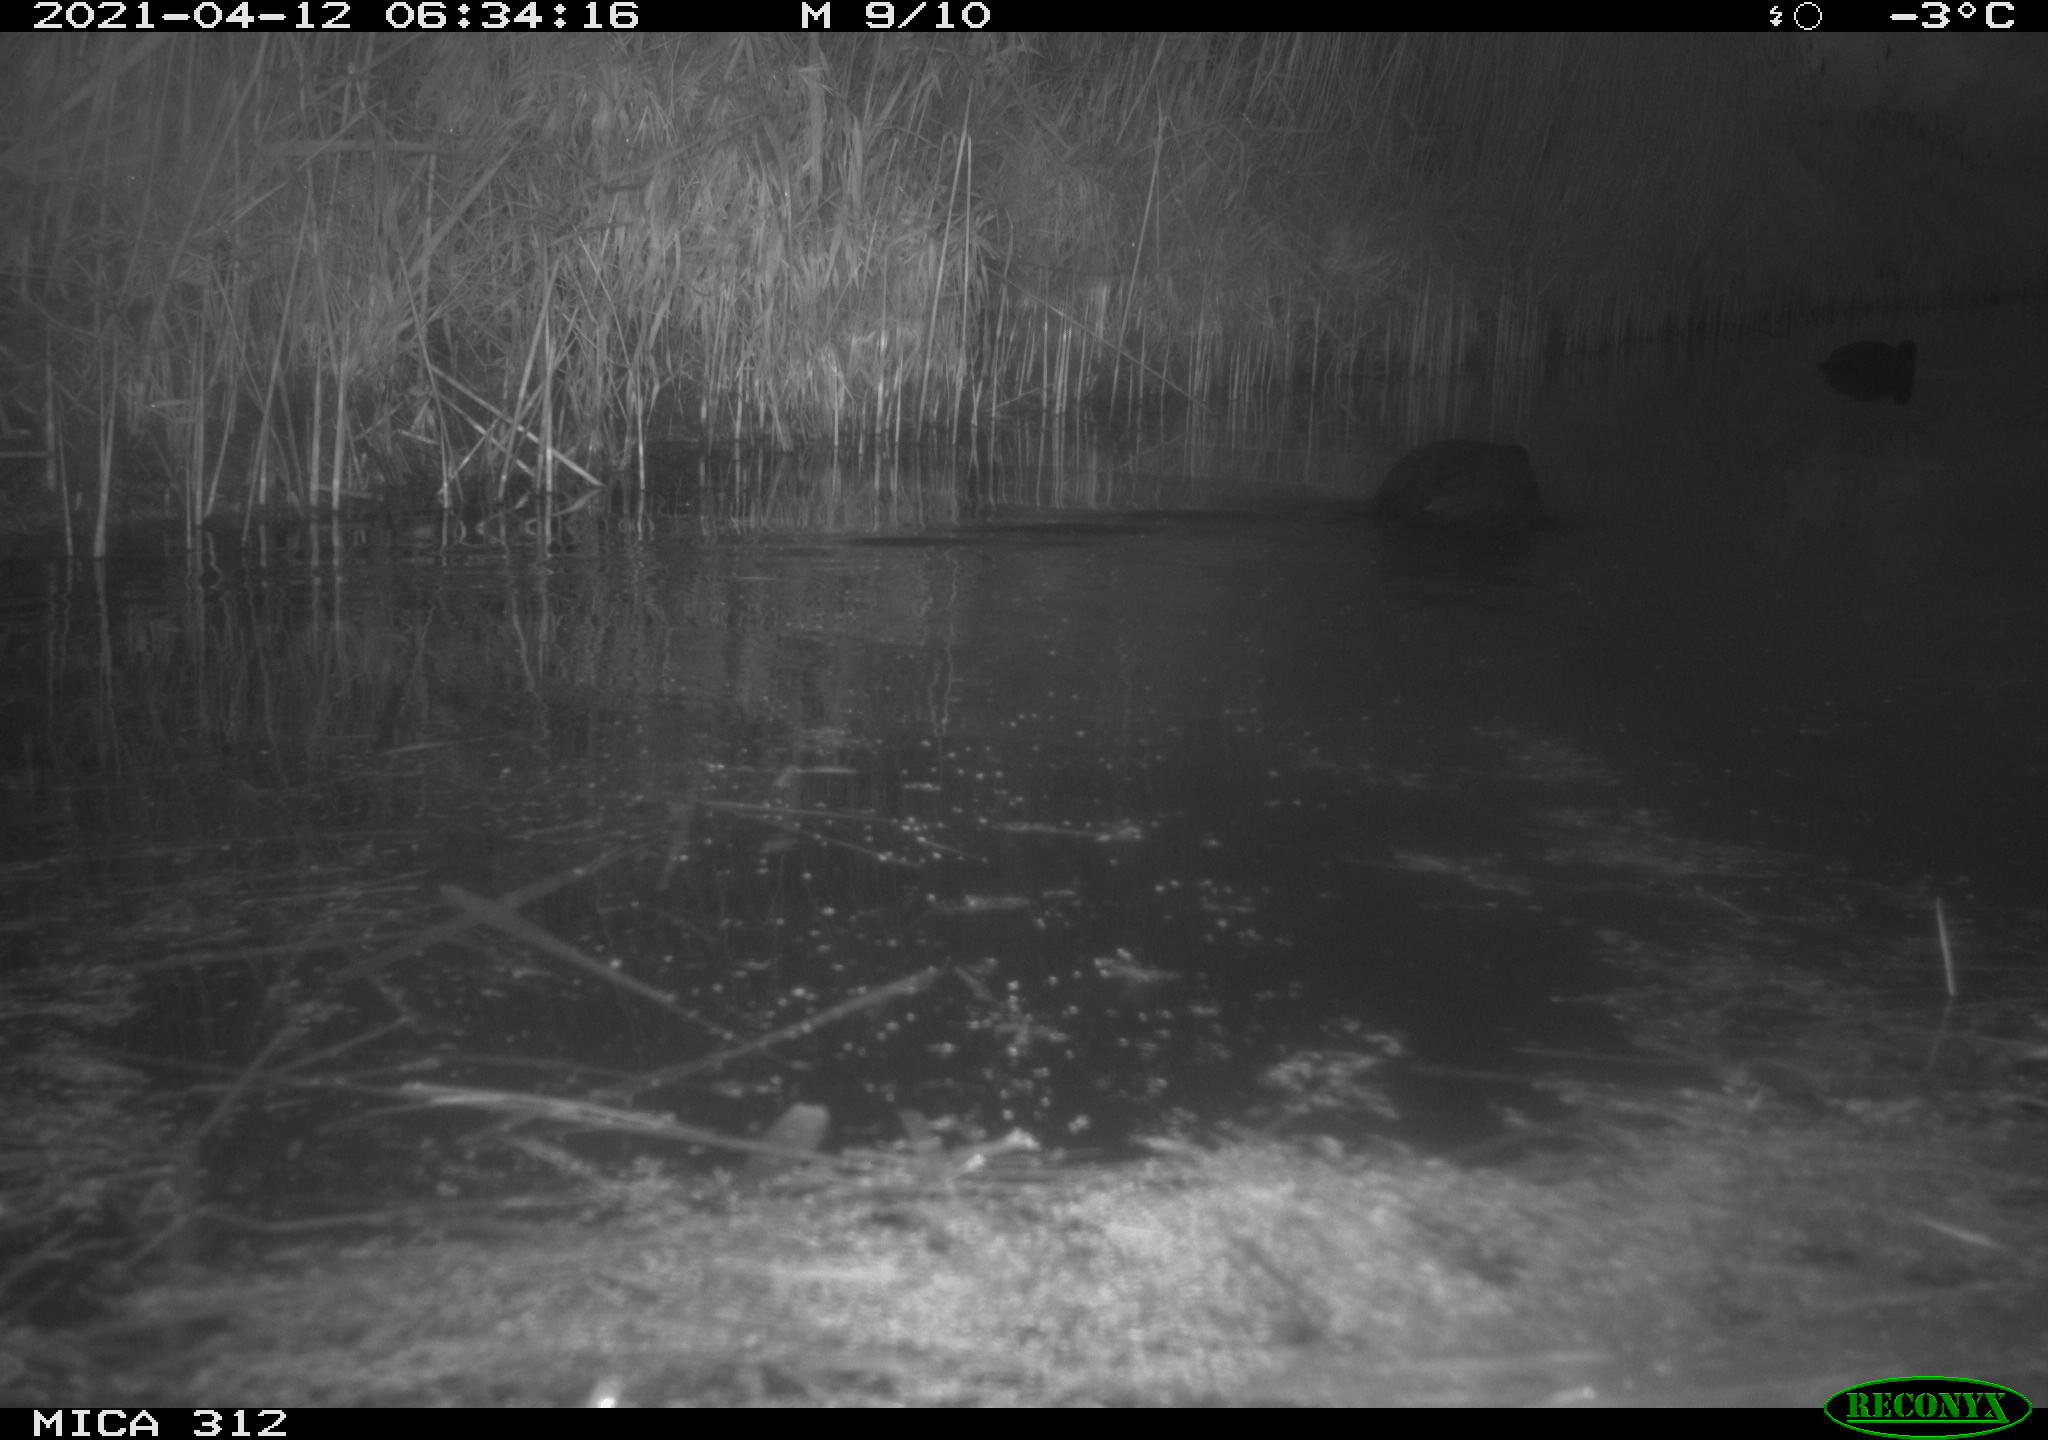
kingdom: Animalia
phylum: Chordata
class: Aves
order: Gruiformes
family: Rallidae
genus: Fulica
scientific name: Fulica atra
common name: Eurasian coot
